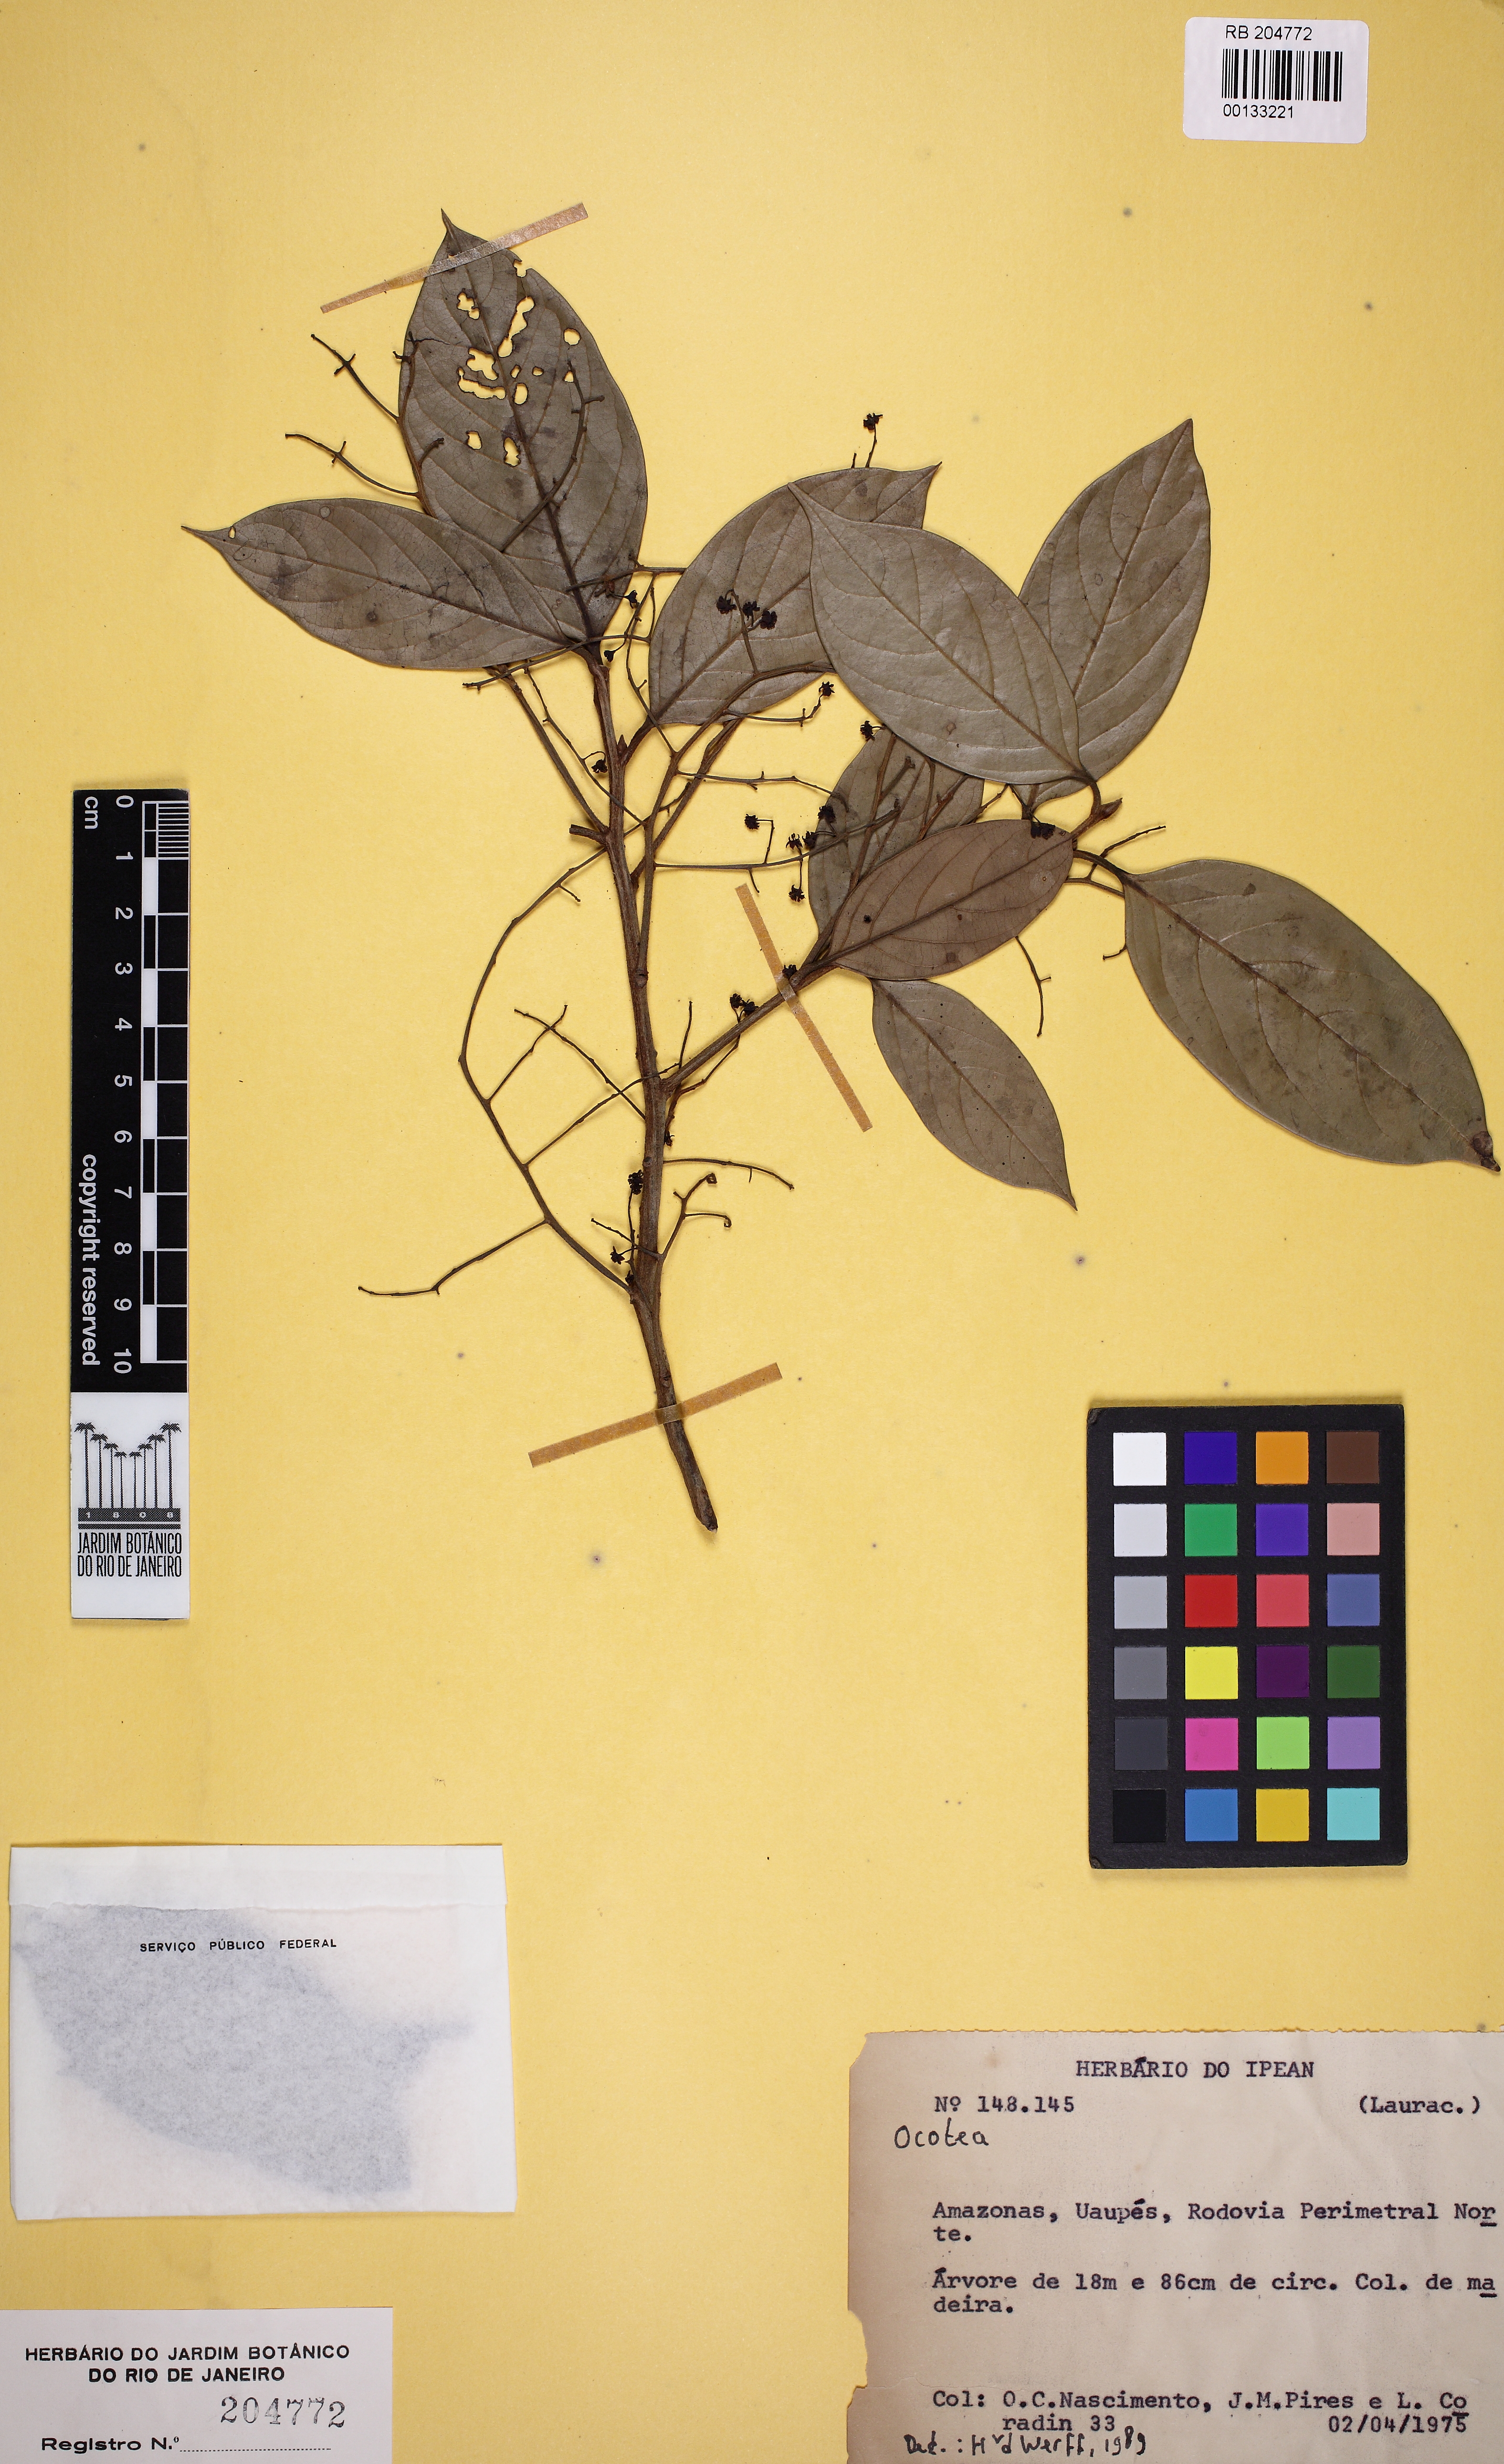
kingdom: Plantae
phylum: Tracheophyta
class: Magnoliopsida
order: Laurales
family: Lauraceae
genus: Ocotea
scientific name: Ocotea
